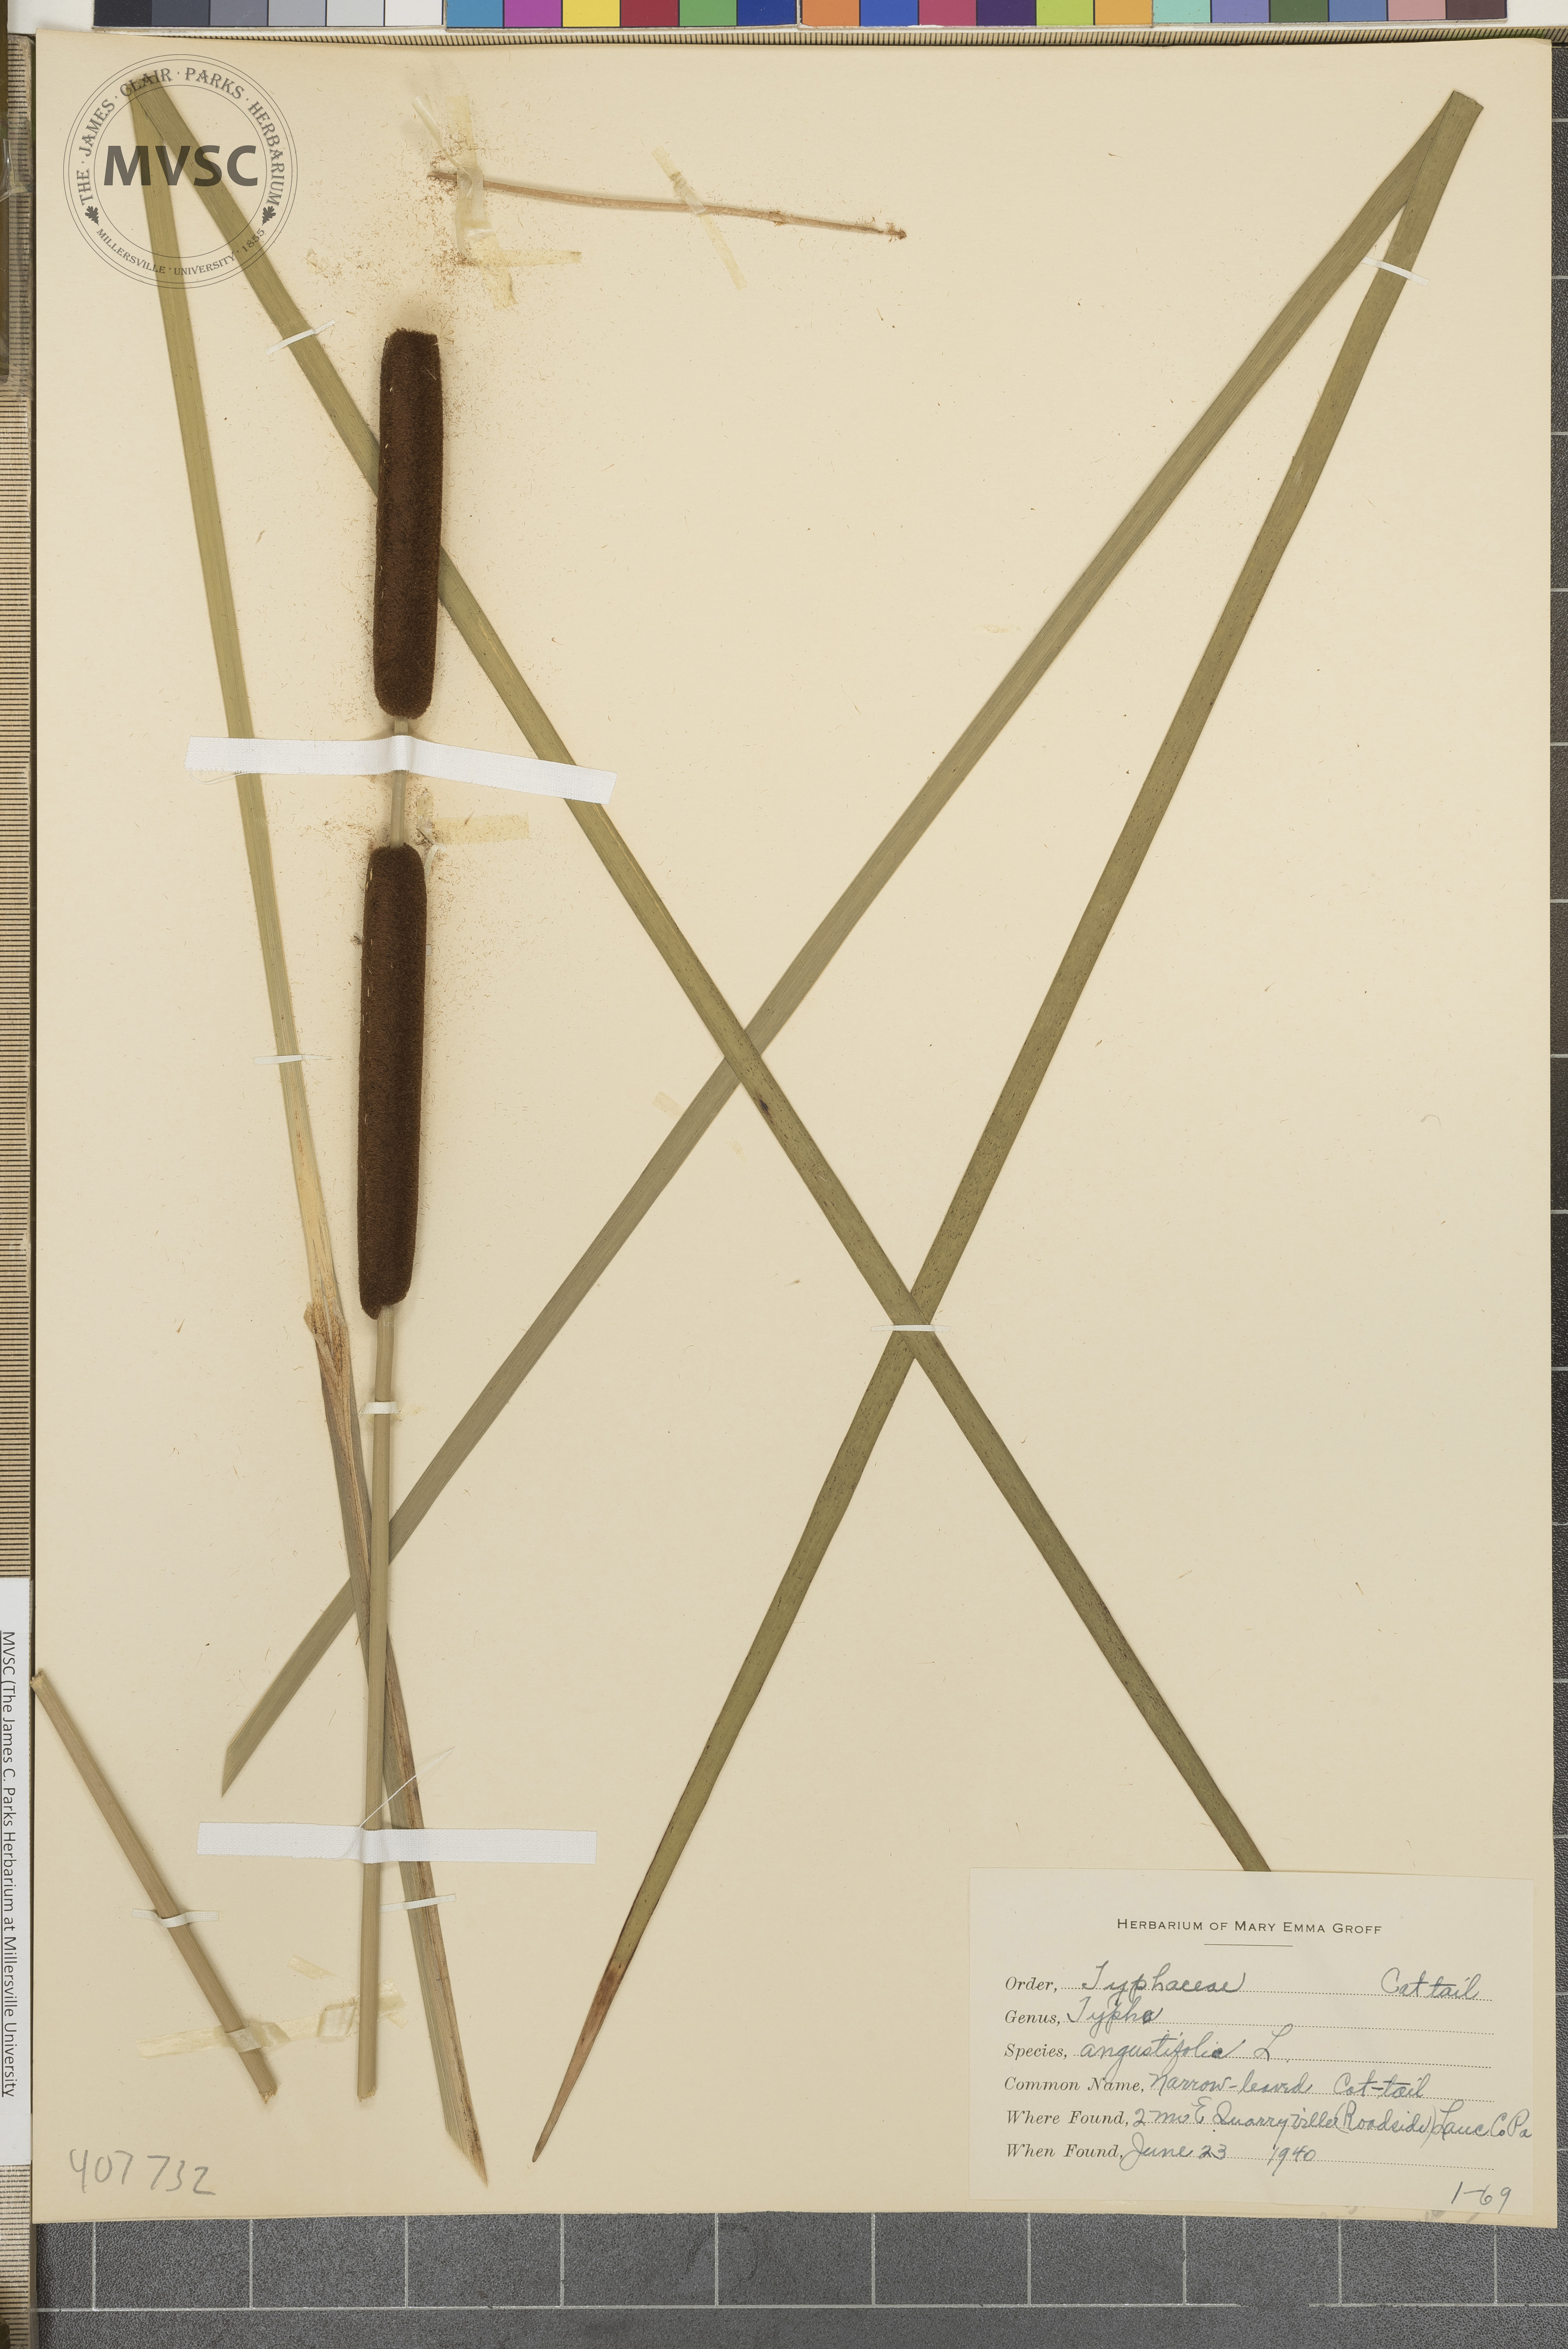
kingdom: Plantae
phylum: Tracheophyta
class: Liliopsida
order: Poales
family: Typhaceae
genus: Typha
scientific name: Typha angustifolia
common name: Lesser bulrush
